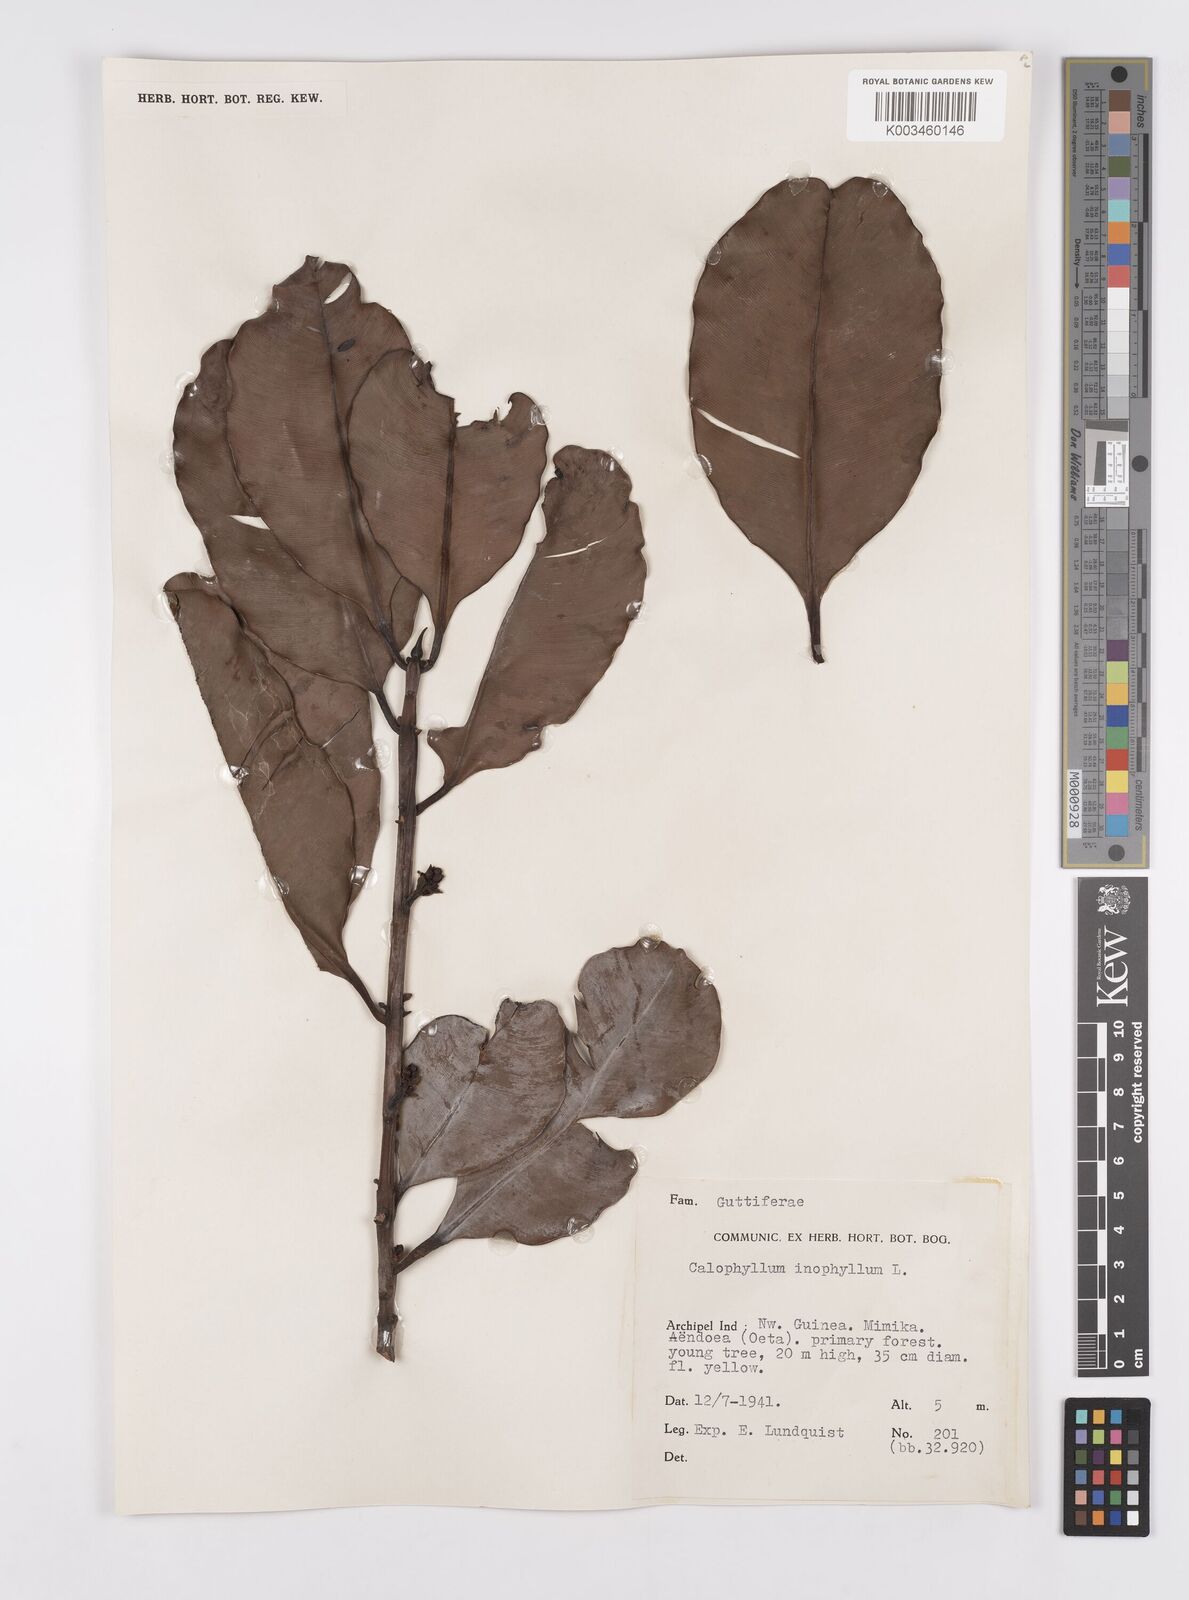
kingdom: Plantae
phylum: Tracheophyta
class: Magnoliopsida
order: Malpighiales
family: Calophyllaceae
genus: Calophyllum
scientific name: Calophyllum inophyllum
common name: Alexandrian laurel
